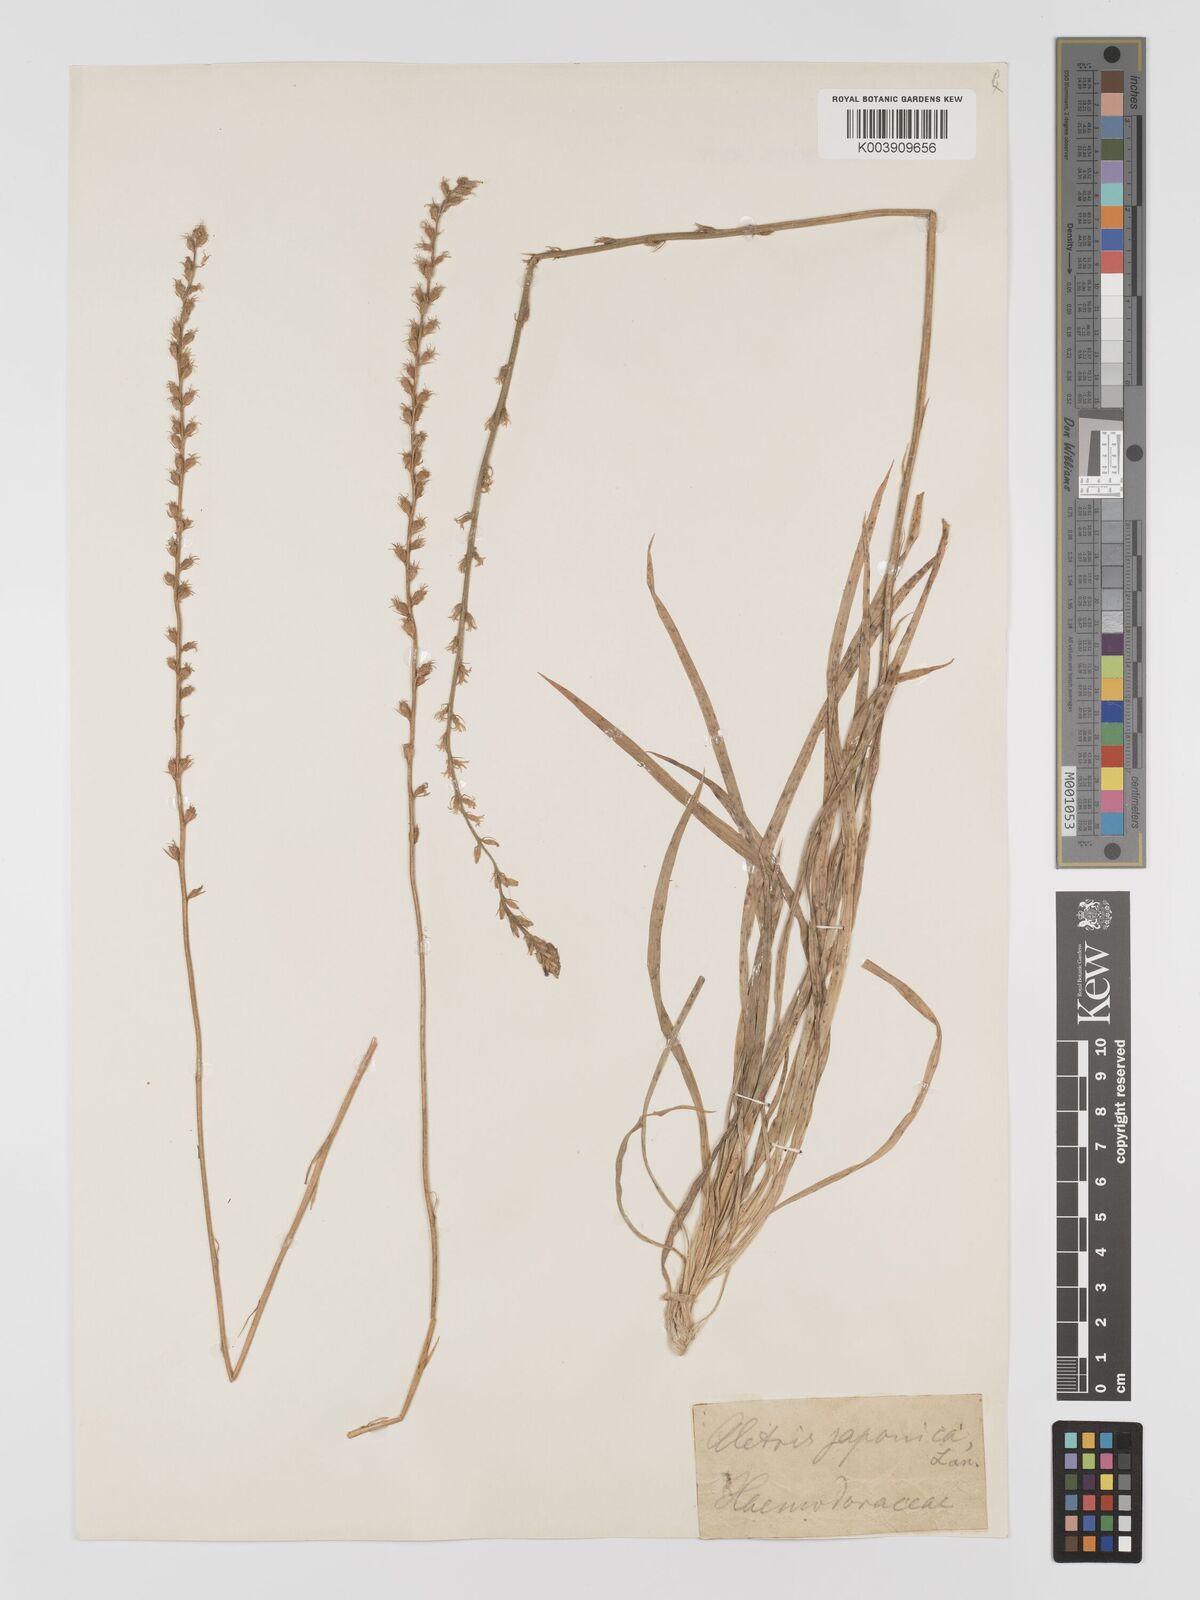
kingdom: Plantae
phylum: Tracheophyta
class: Liliopsida
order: Dioscoreales
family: Nartheciaceae
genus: Aletris
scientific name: Aletris spicata
